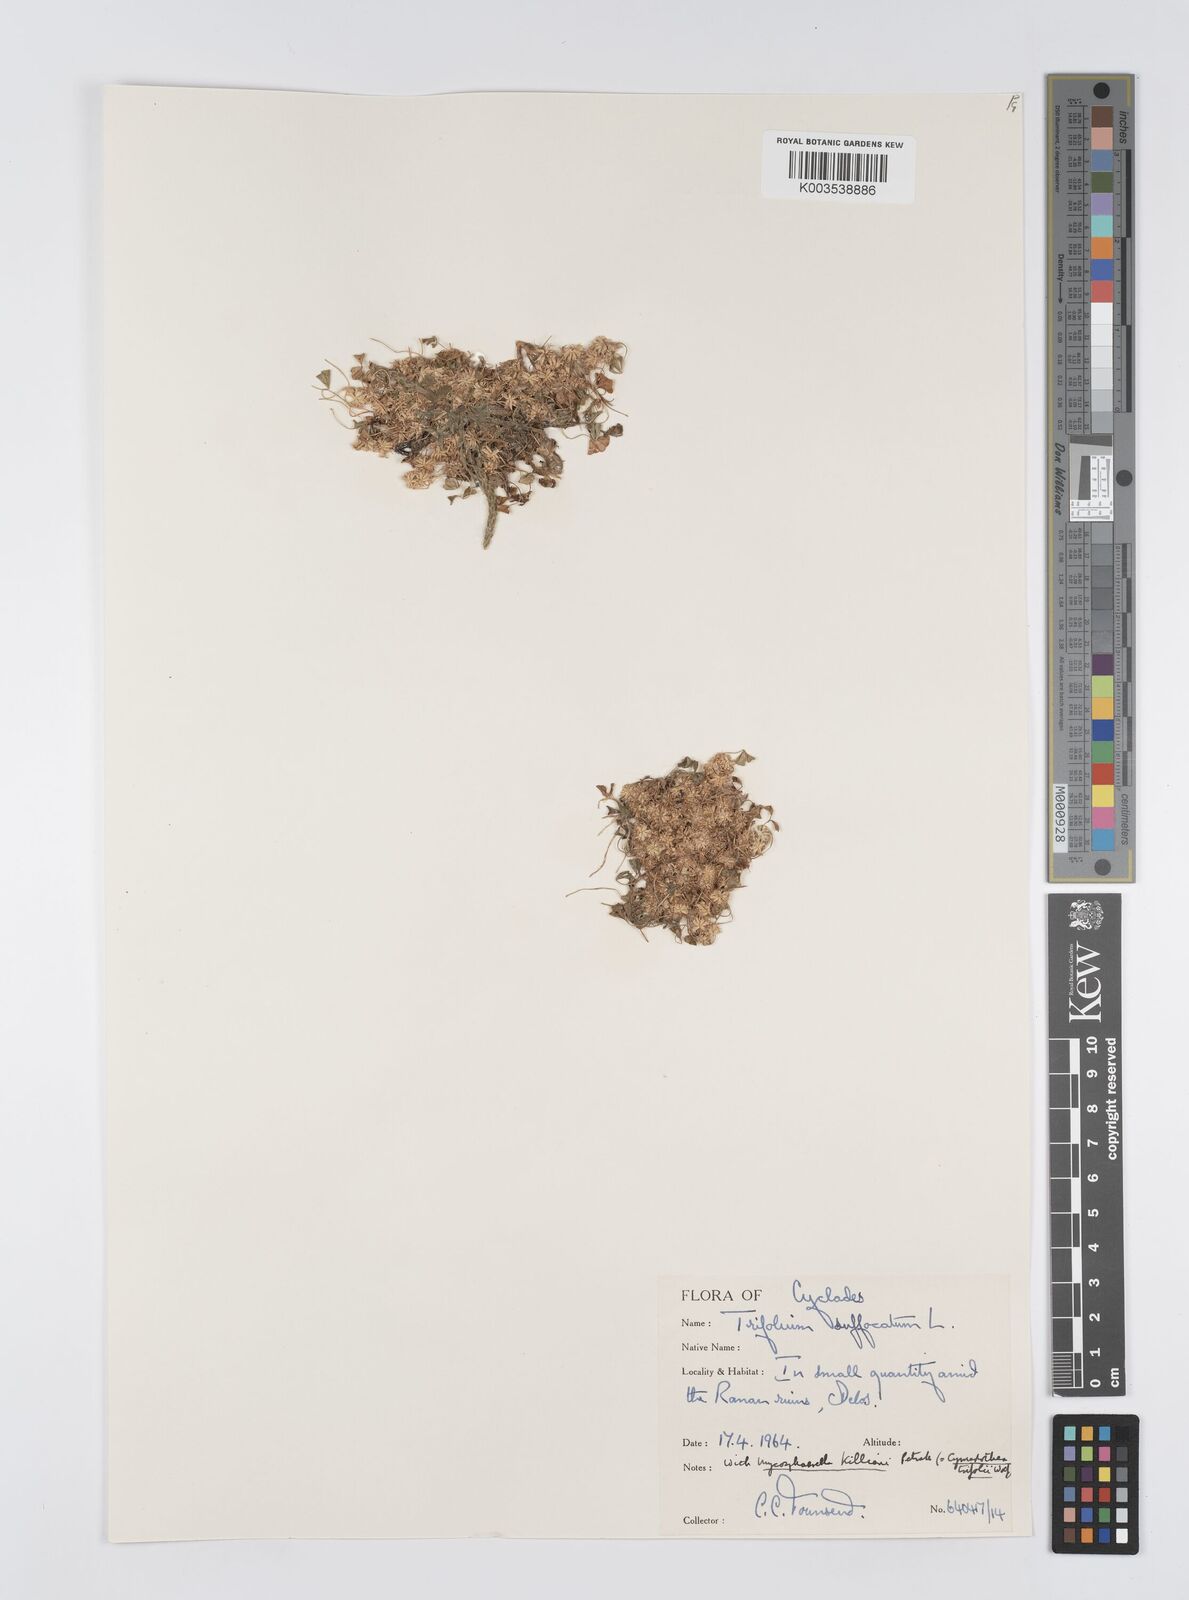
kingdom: Plantae
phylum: Tracheophyta
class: Magnoliopsida
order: Fabales
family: Fabaceae
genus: Trifolium
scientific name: Trifolium suffocatum
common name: Suffocated clover
